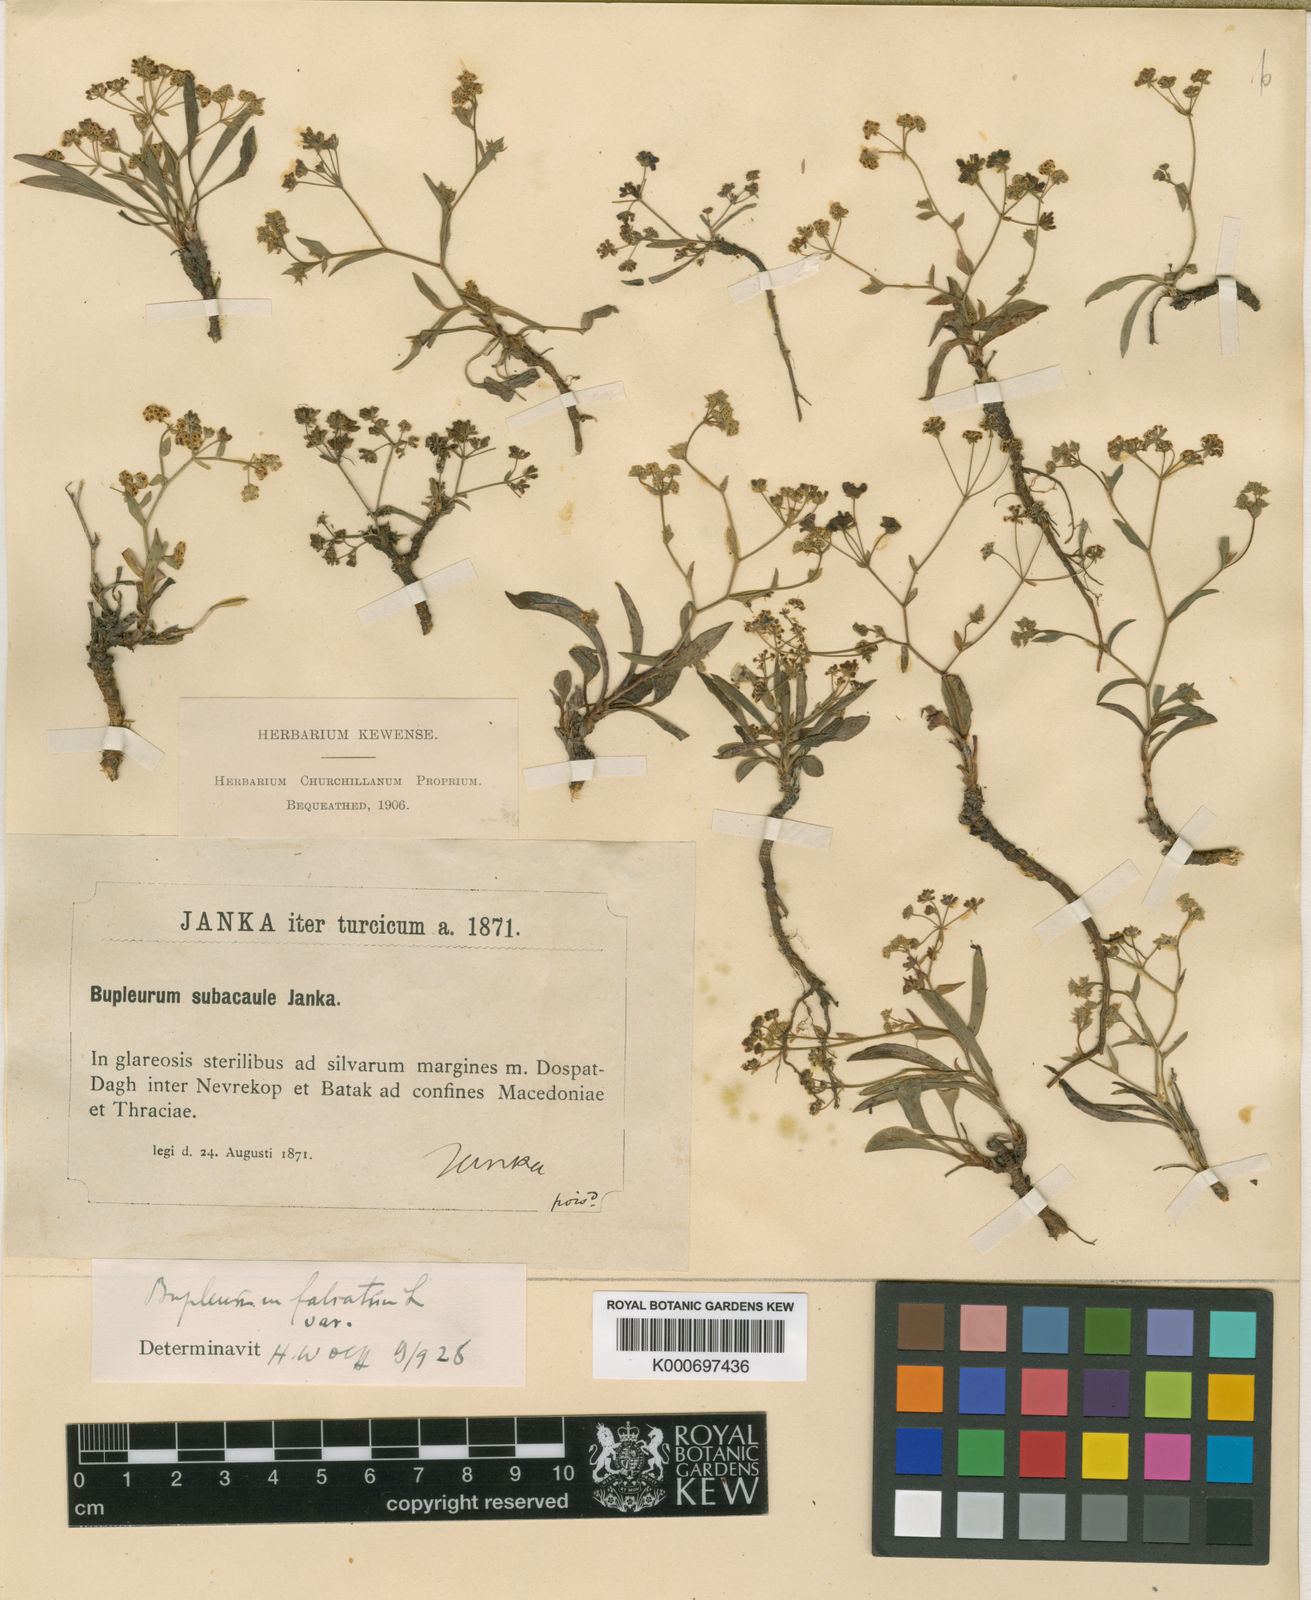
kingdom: Plantae
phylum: Tracheophyta
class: Magnoliopsida
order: Apiales
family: Apiaceae
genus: Bupleurum
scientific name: Bupleurum falcatum
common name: Sickle-leaved hare's-ear
